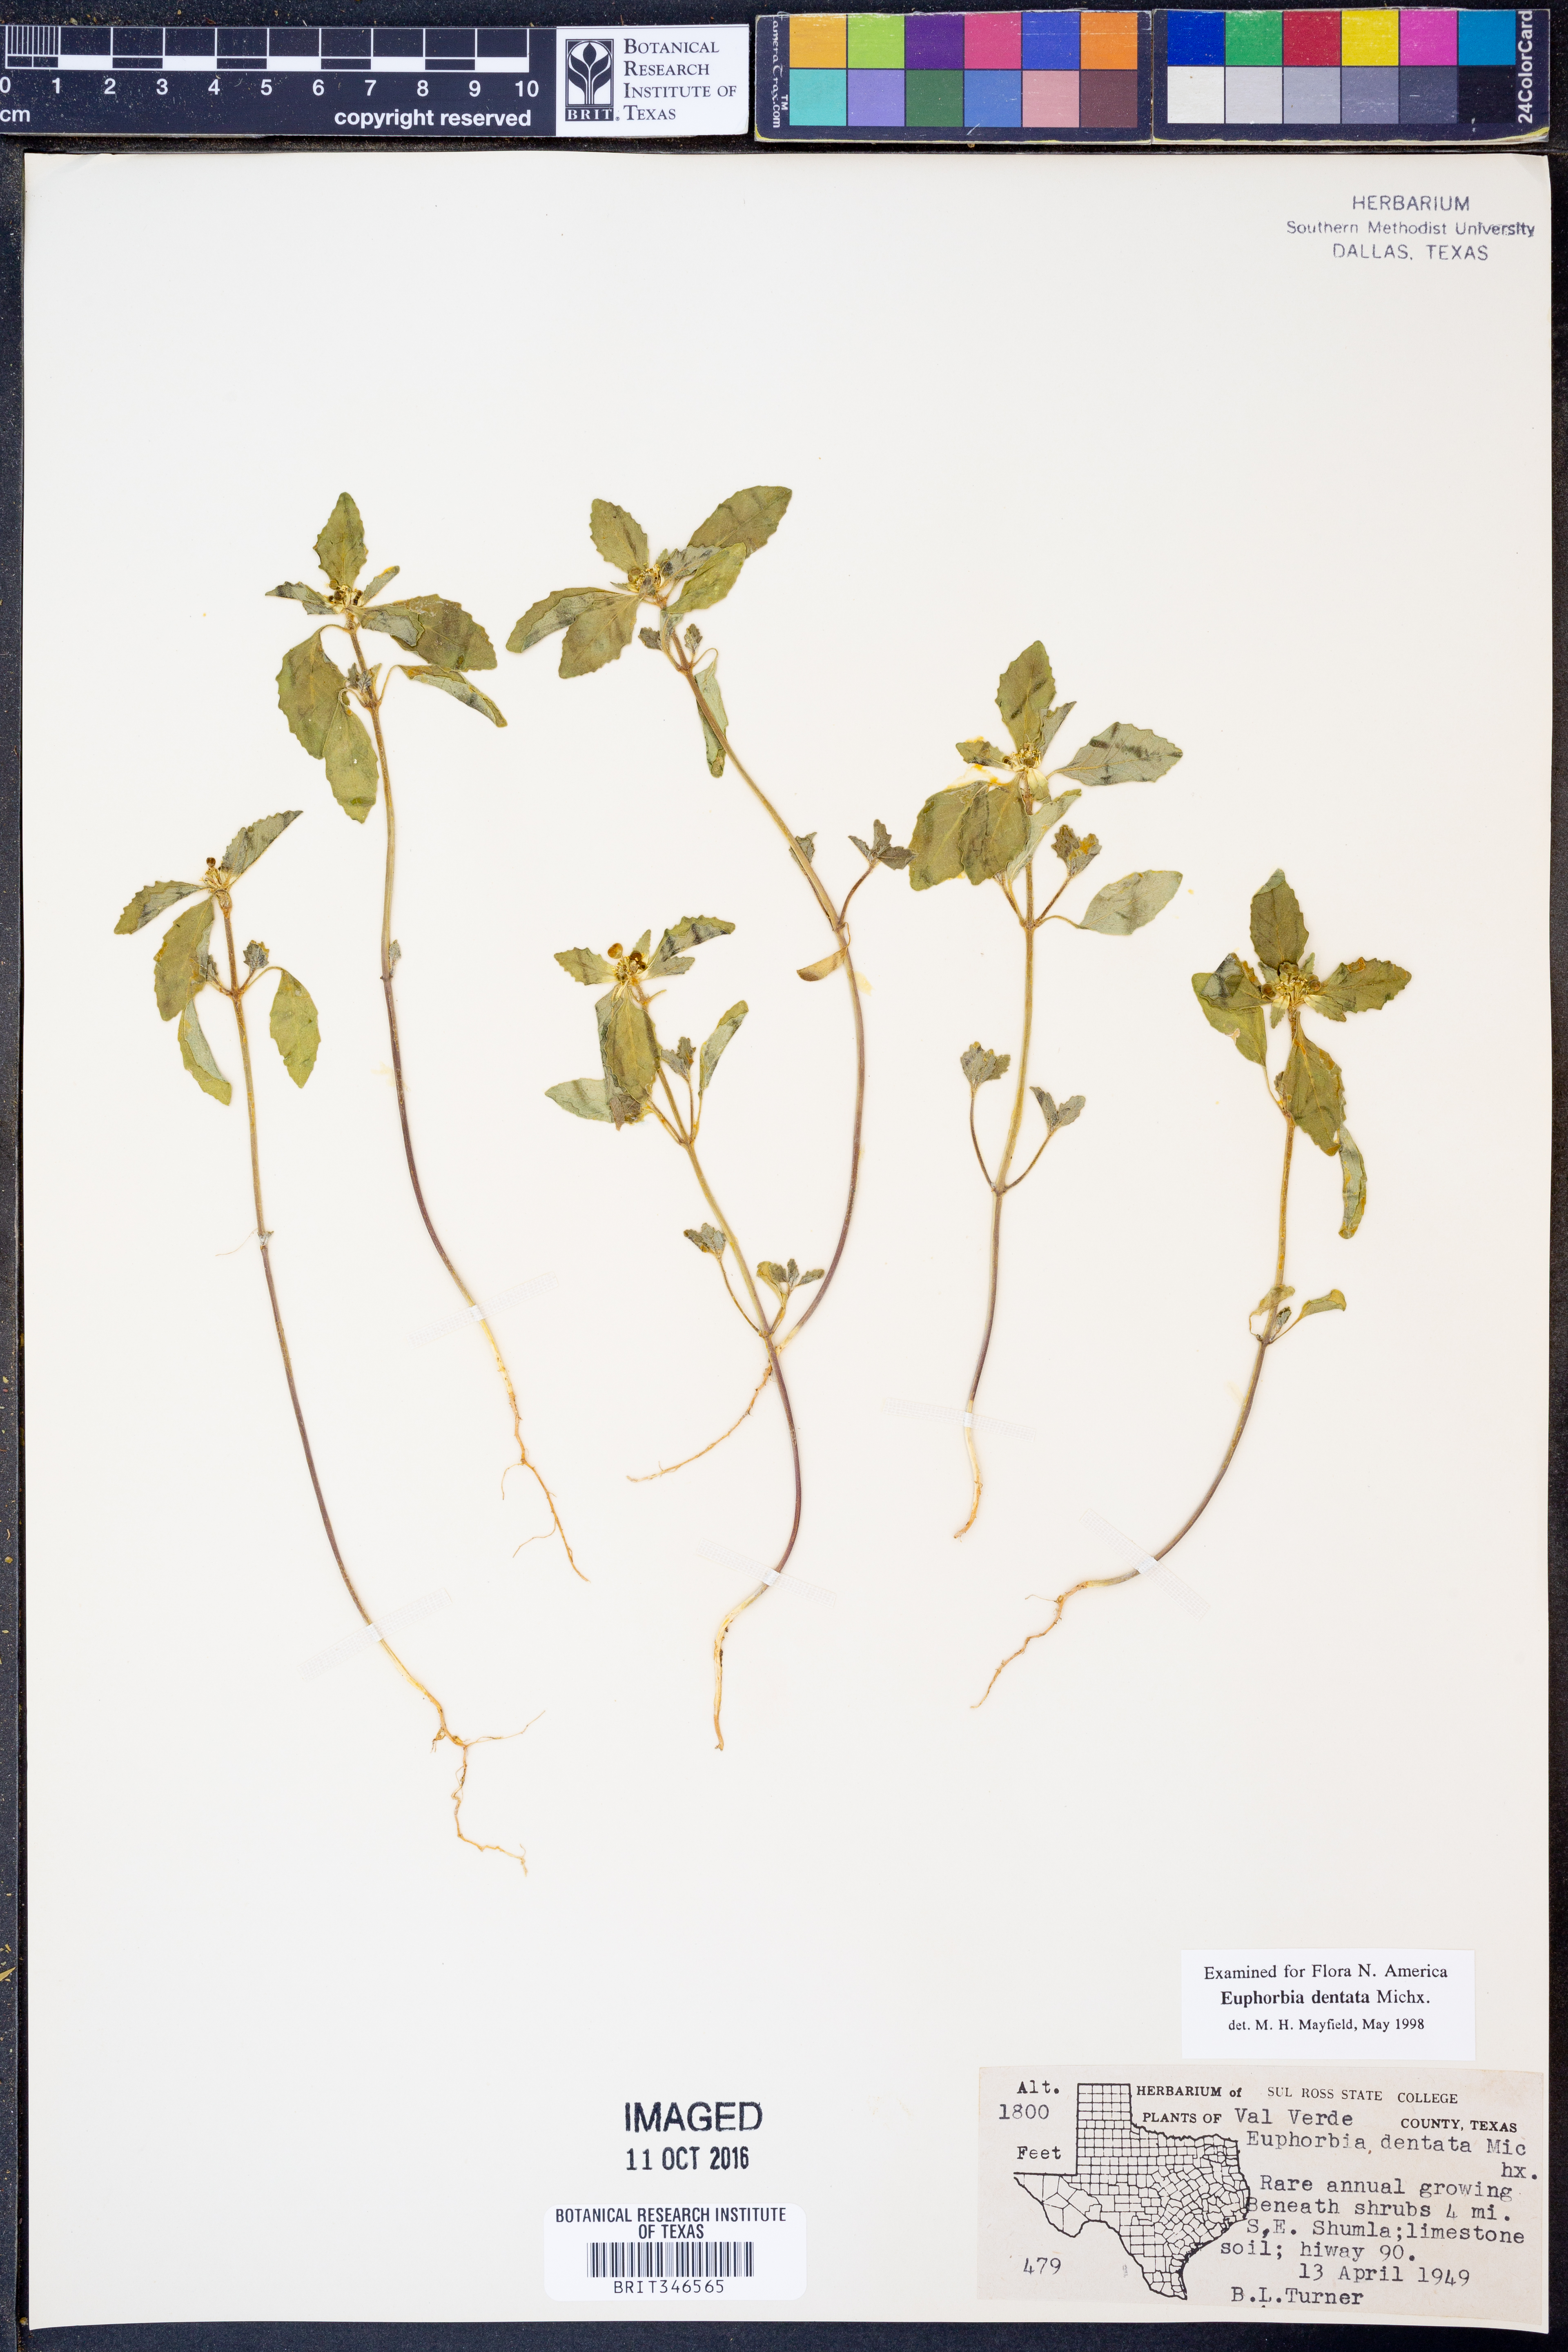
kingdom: Plantae
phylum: Tracheophyta
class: Magnoliopsida
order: Malpighiales
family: Euphorbiaceae
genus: Euphorbia
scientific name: Euphorbia dentata
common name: Dentate spurge
